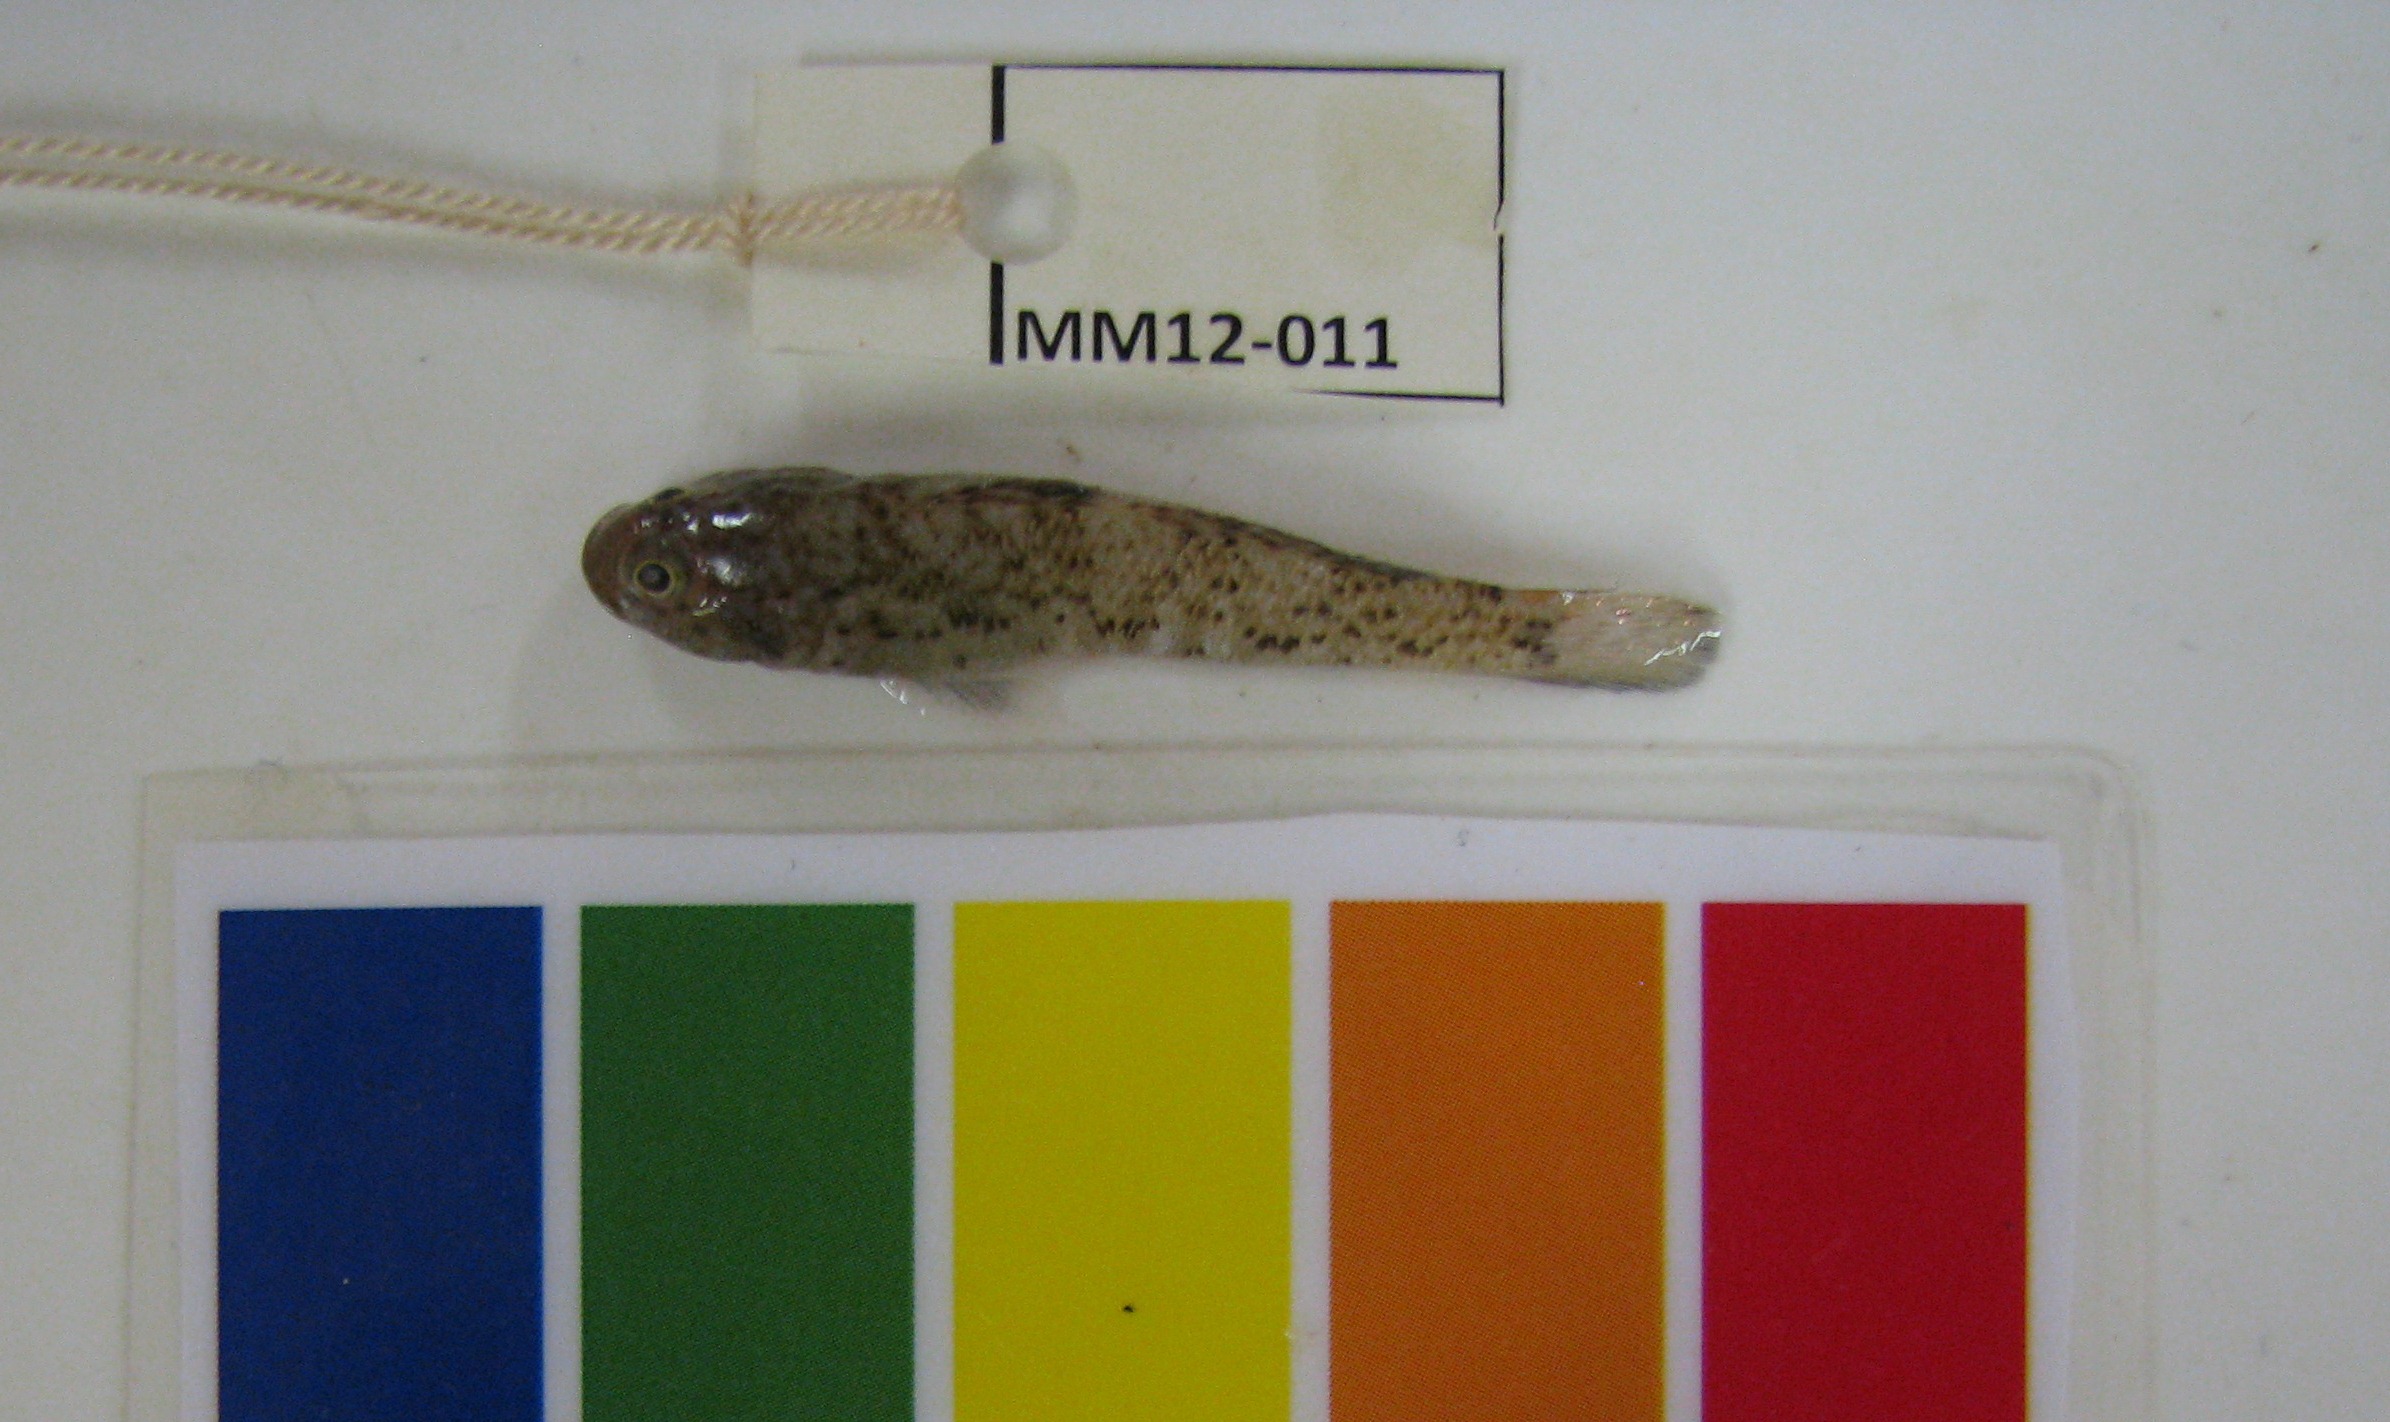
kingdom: Animalia
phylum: Chordata
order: Perciformes
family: Gobiidae
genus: Caffrogobius
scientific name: Caffrogobius saldanha
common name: Commafin goby
